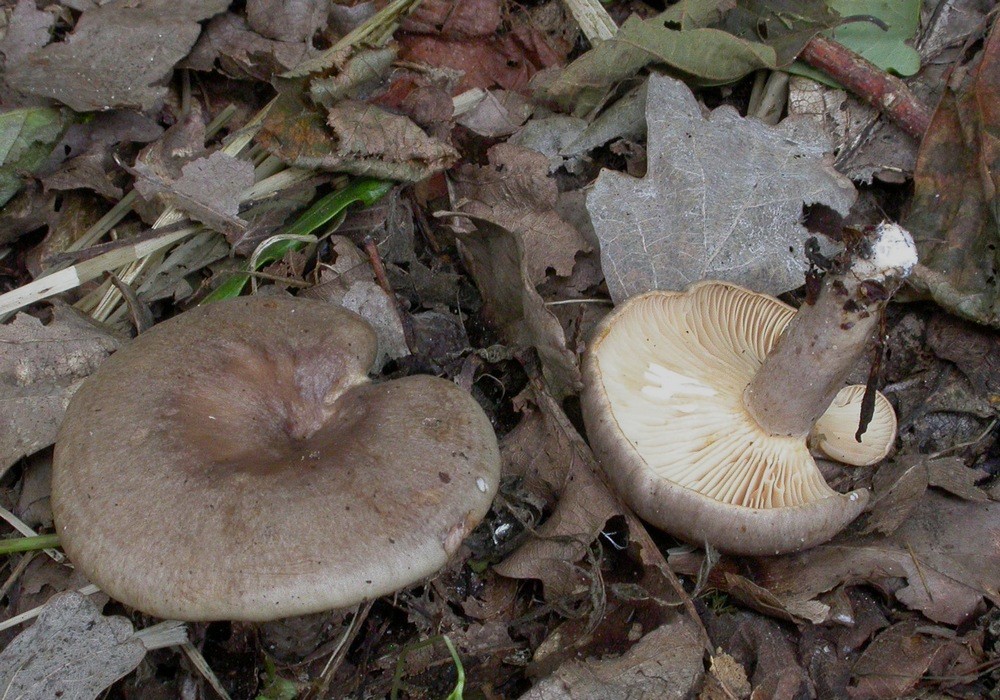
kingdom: Fungi
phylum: Basidiomycota
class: Agaricomycetes
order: Russulales
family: Russulaceae
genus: Lactarius
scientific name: Lactarius pyrogalus
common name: hassel-mælkehat
